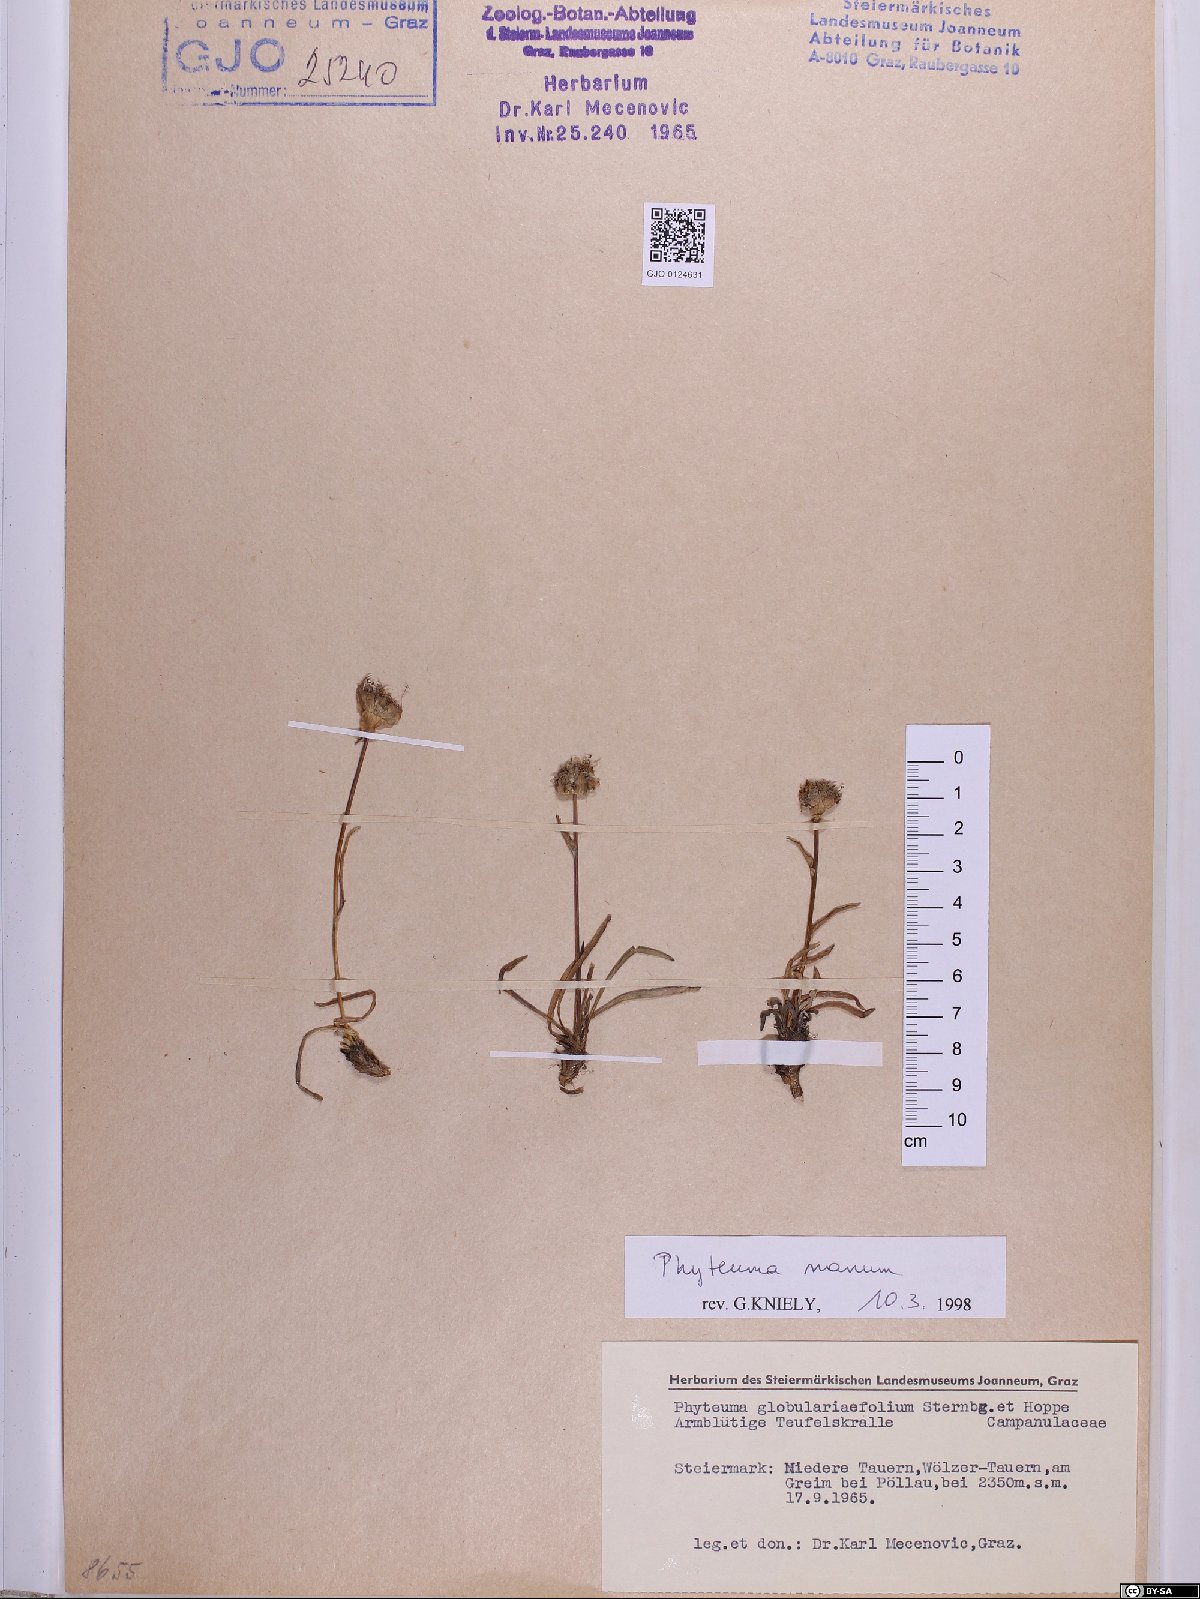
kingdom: Plantae
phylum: Tracheophyta
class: Magnoliopsida
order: Asterales
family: Campanulaceae
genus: Phyteuma
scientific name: Phyteuma globulariifolium
